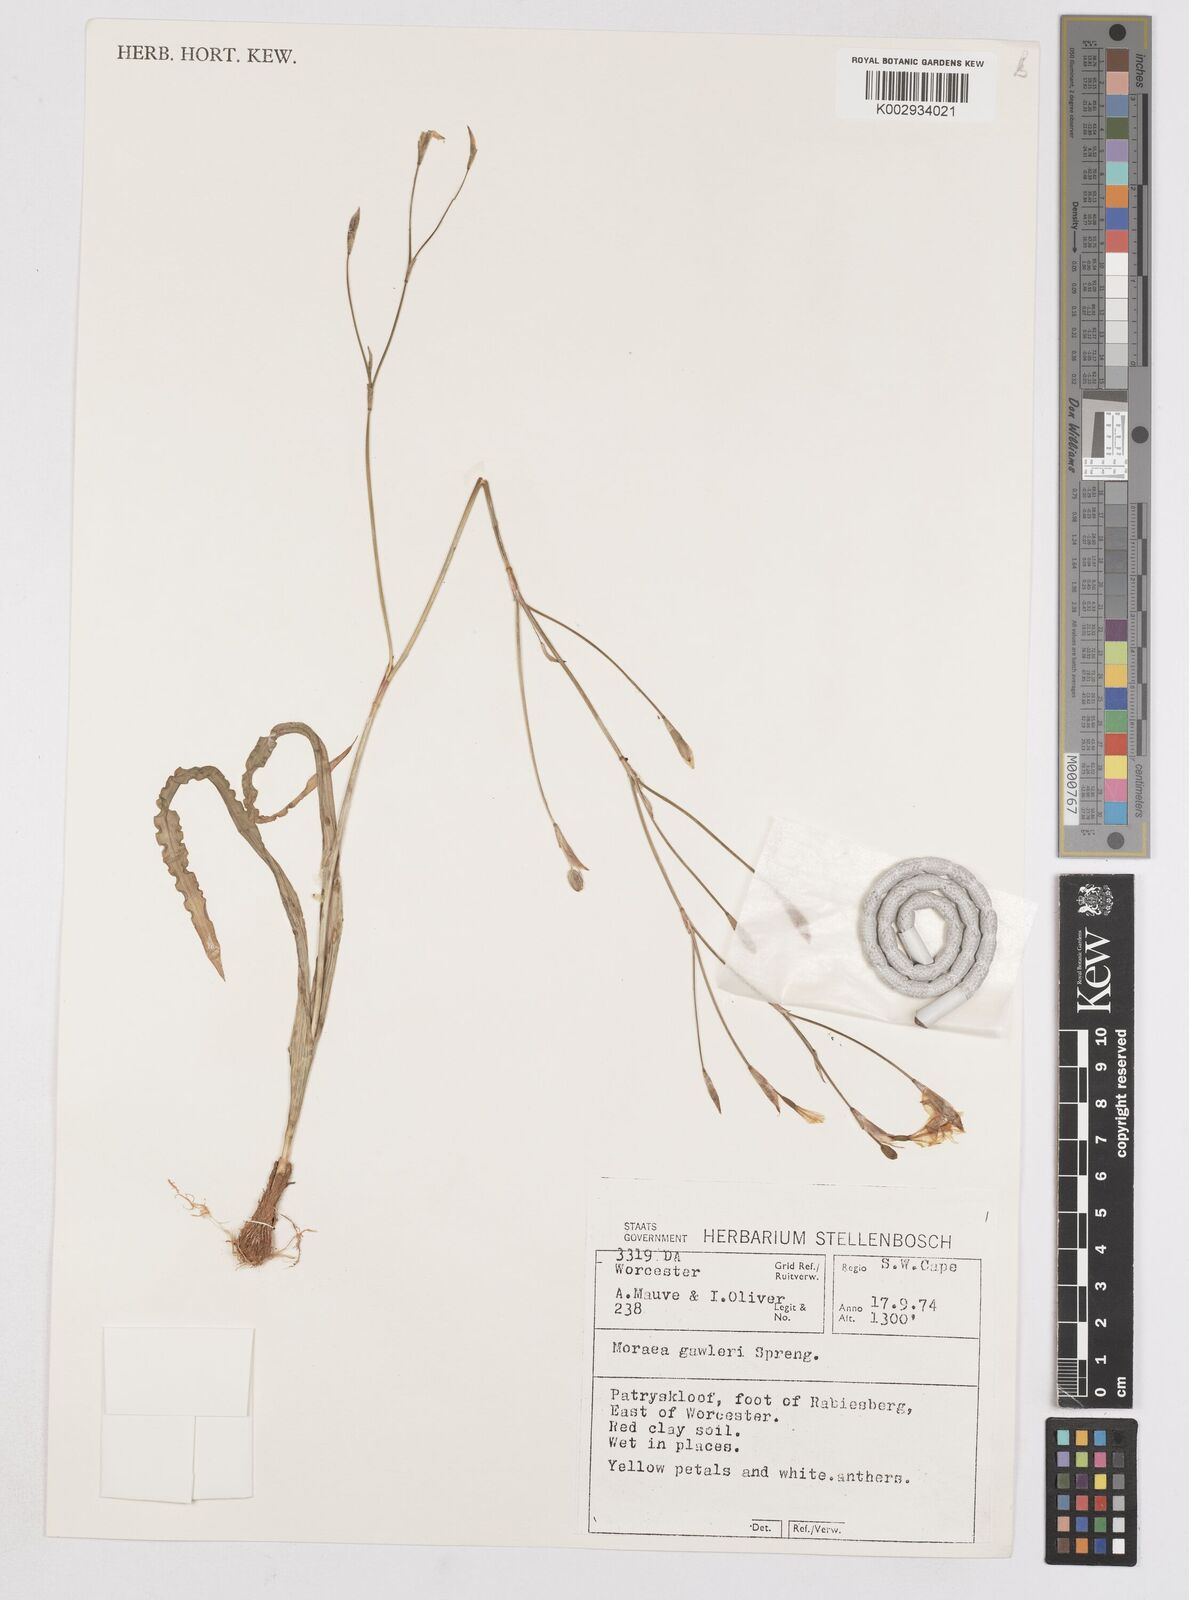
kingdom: Plantae
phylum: Tracheophyta
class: Liliopsida
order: Asparagales
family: Iridaceae
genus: Moraea
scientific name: Moraea gawleri
